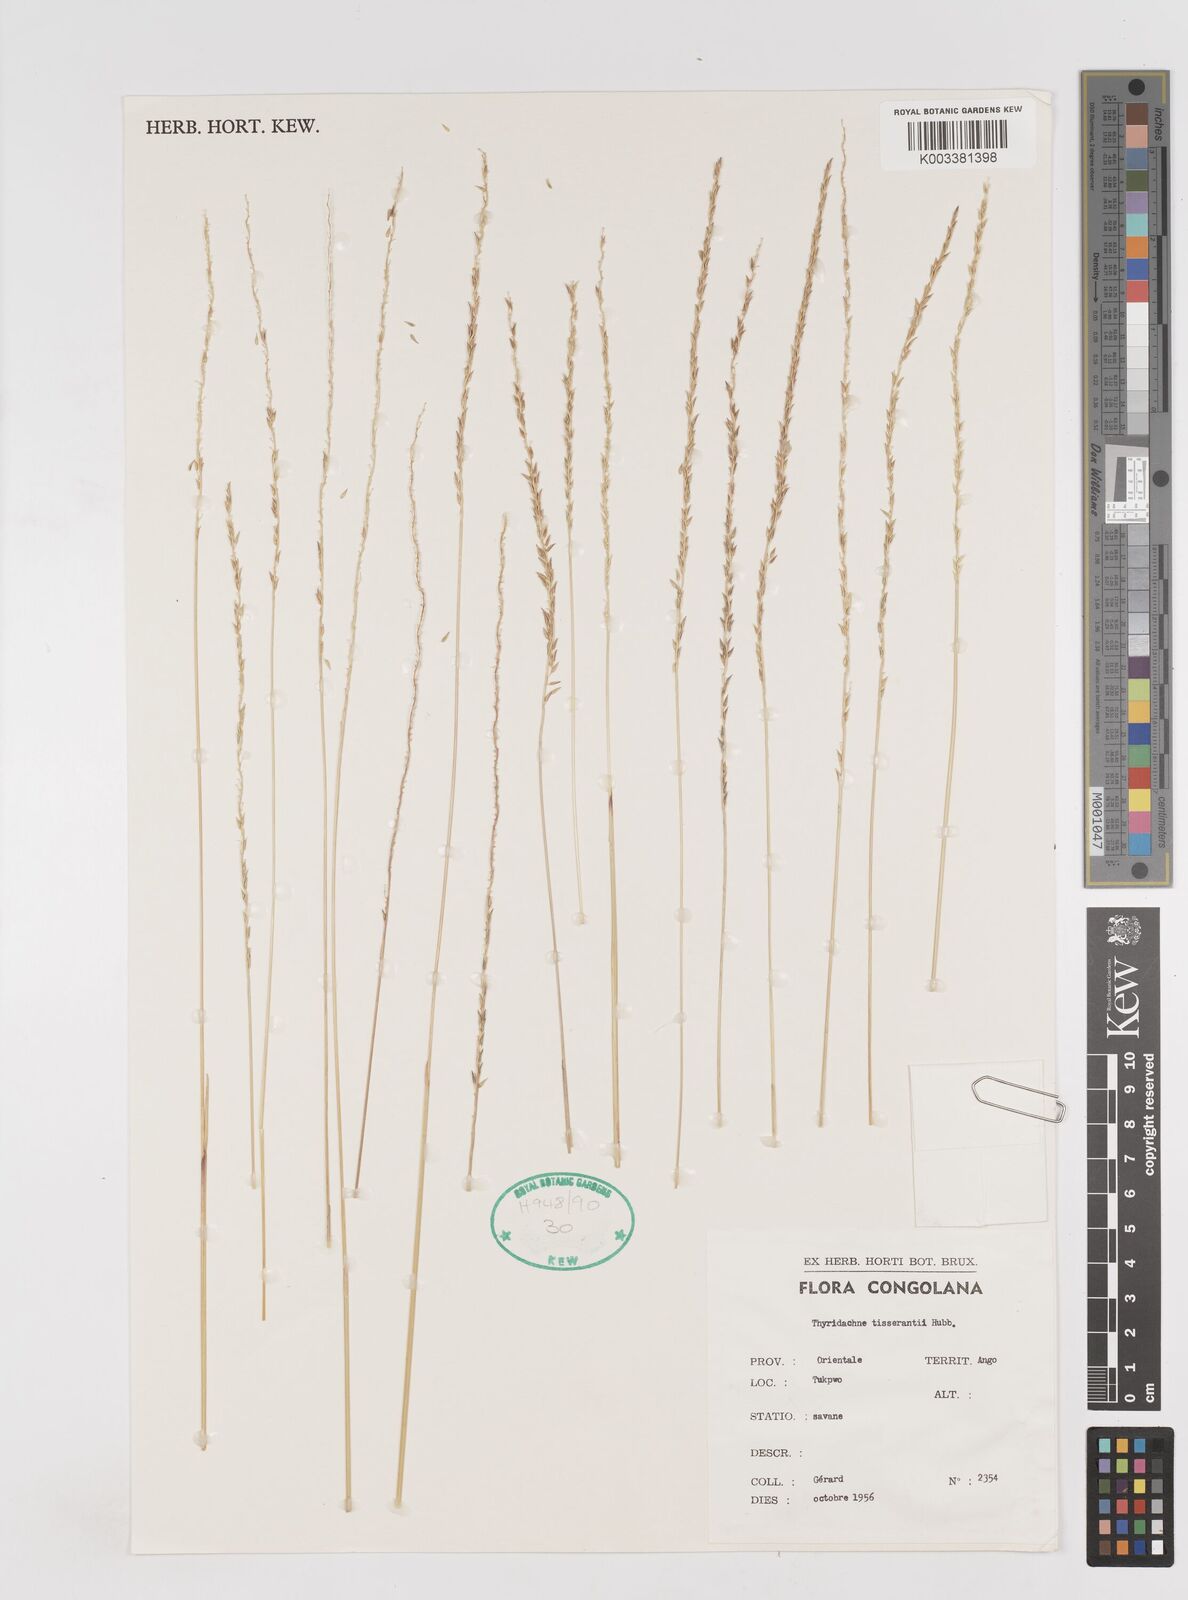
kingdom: Plantae
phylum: Tracheophyta
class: Liliopsida
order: Poales
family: Poaceae
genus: Thyridachne
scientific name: Thyridachne tisserantii
